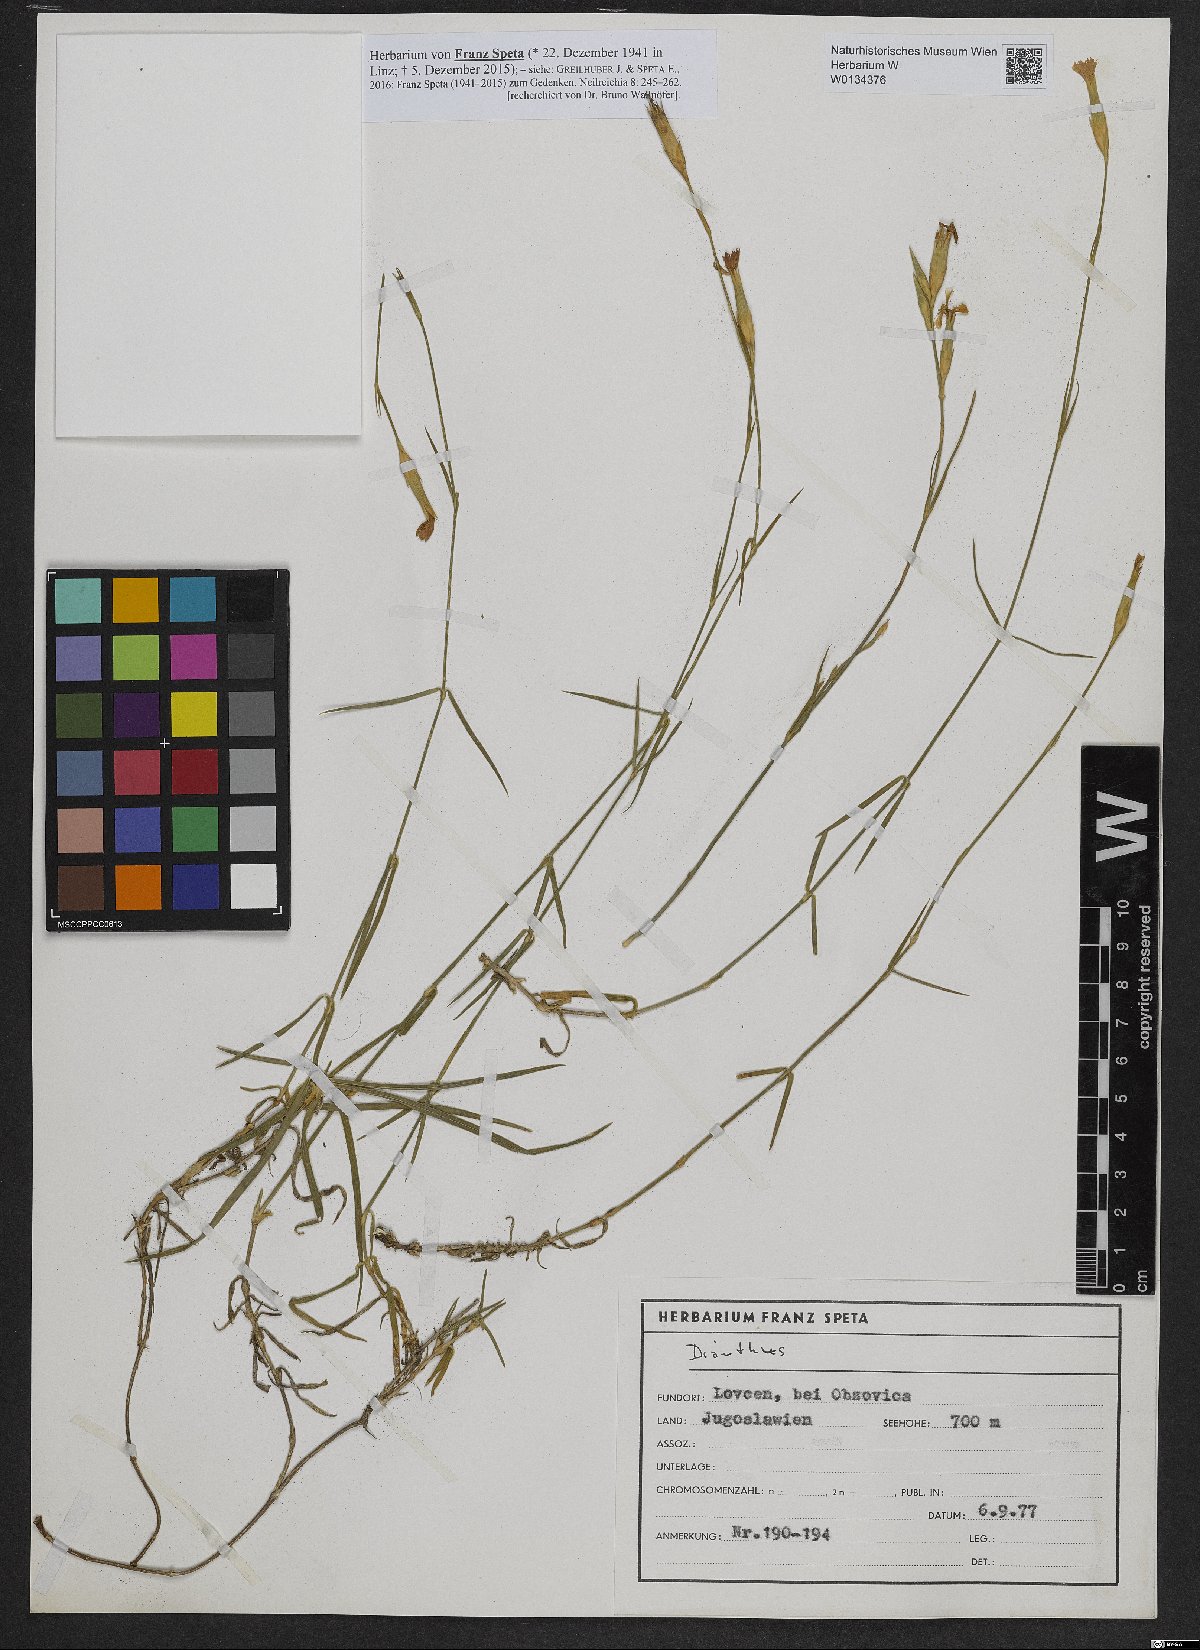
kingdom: Plantae
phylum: Tracheophyta
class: Magnoliopsida
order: Caryophyllales
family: Caryophyllaceae
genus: Dianthus
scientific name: Dianthus
